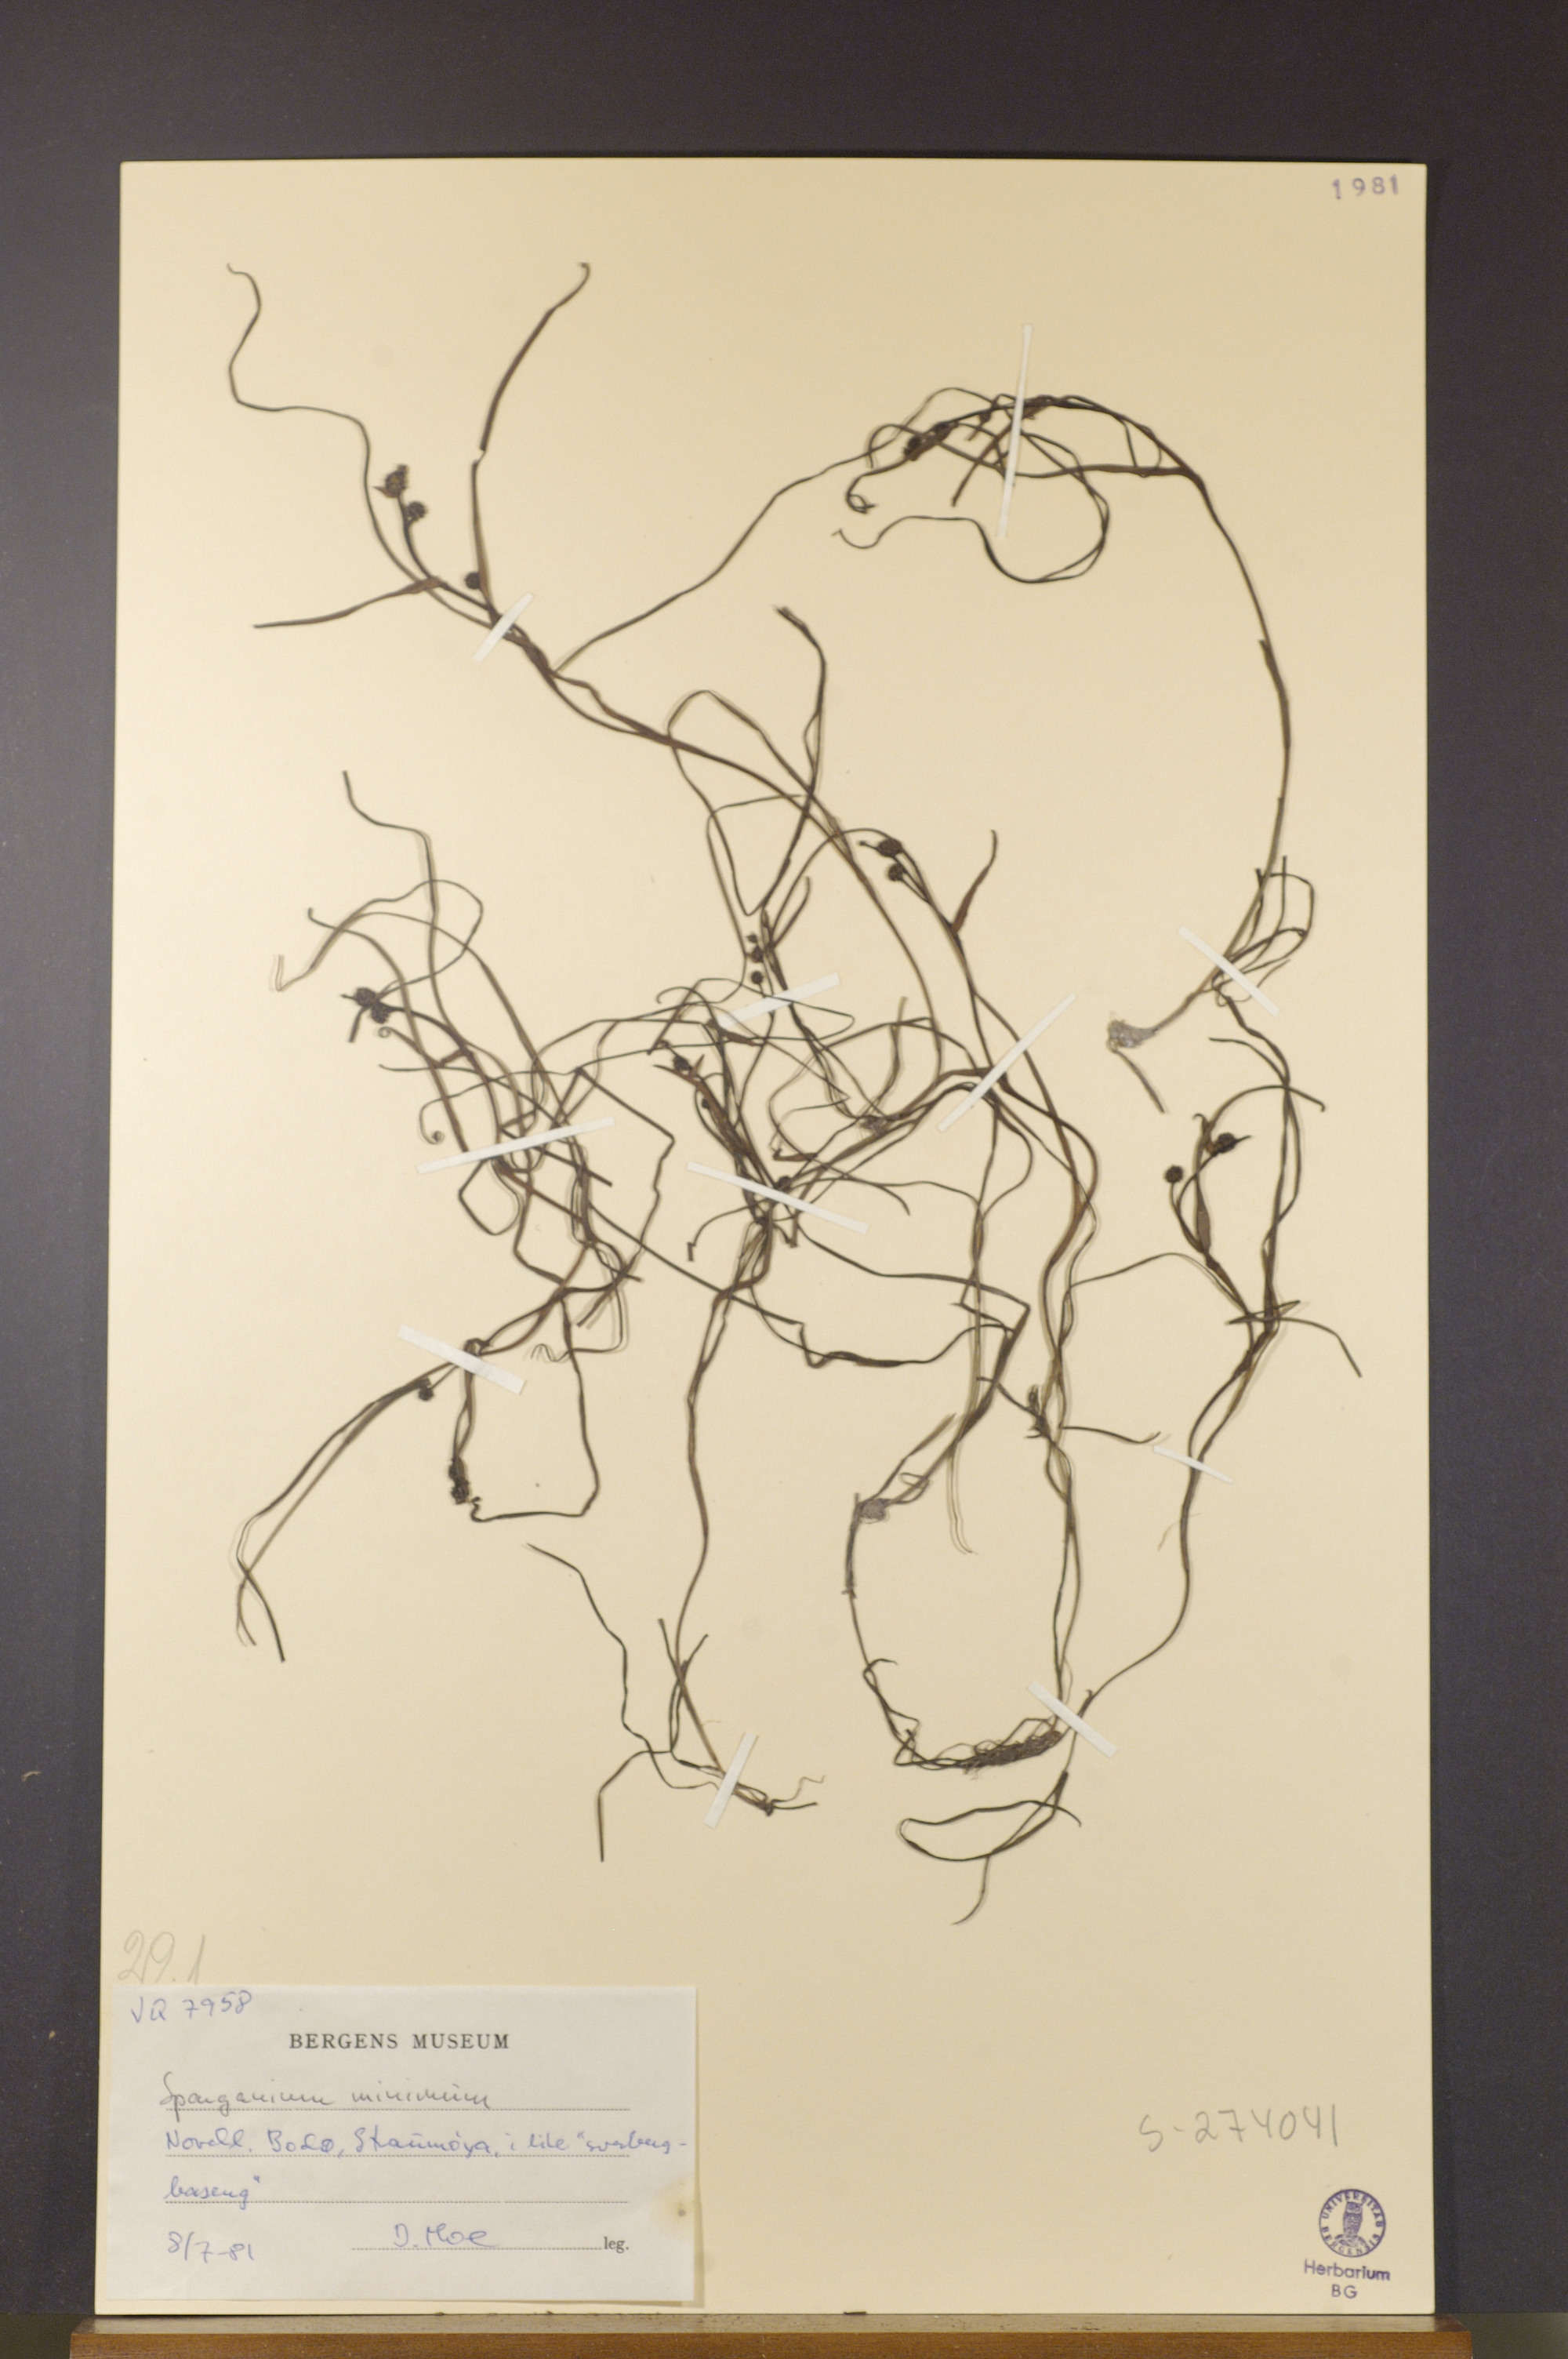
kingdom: Plantae
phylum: Tracheophyta
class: Liliopsida
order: Poales
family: Typhaceae
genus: Sparganium
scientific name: Sparganium natans
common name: Least bur-reed
